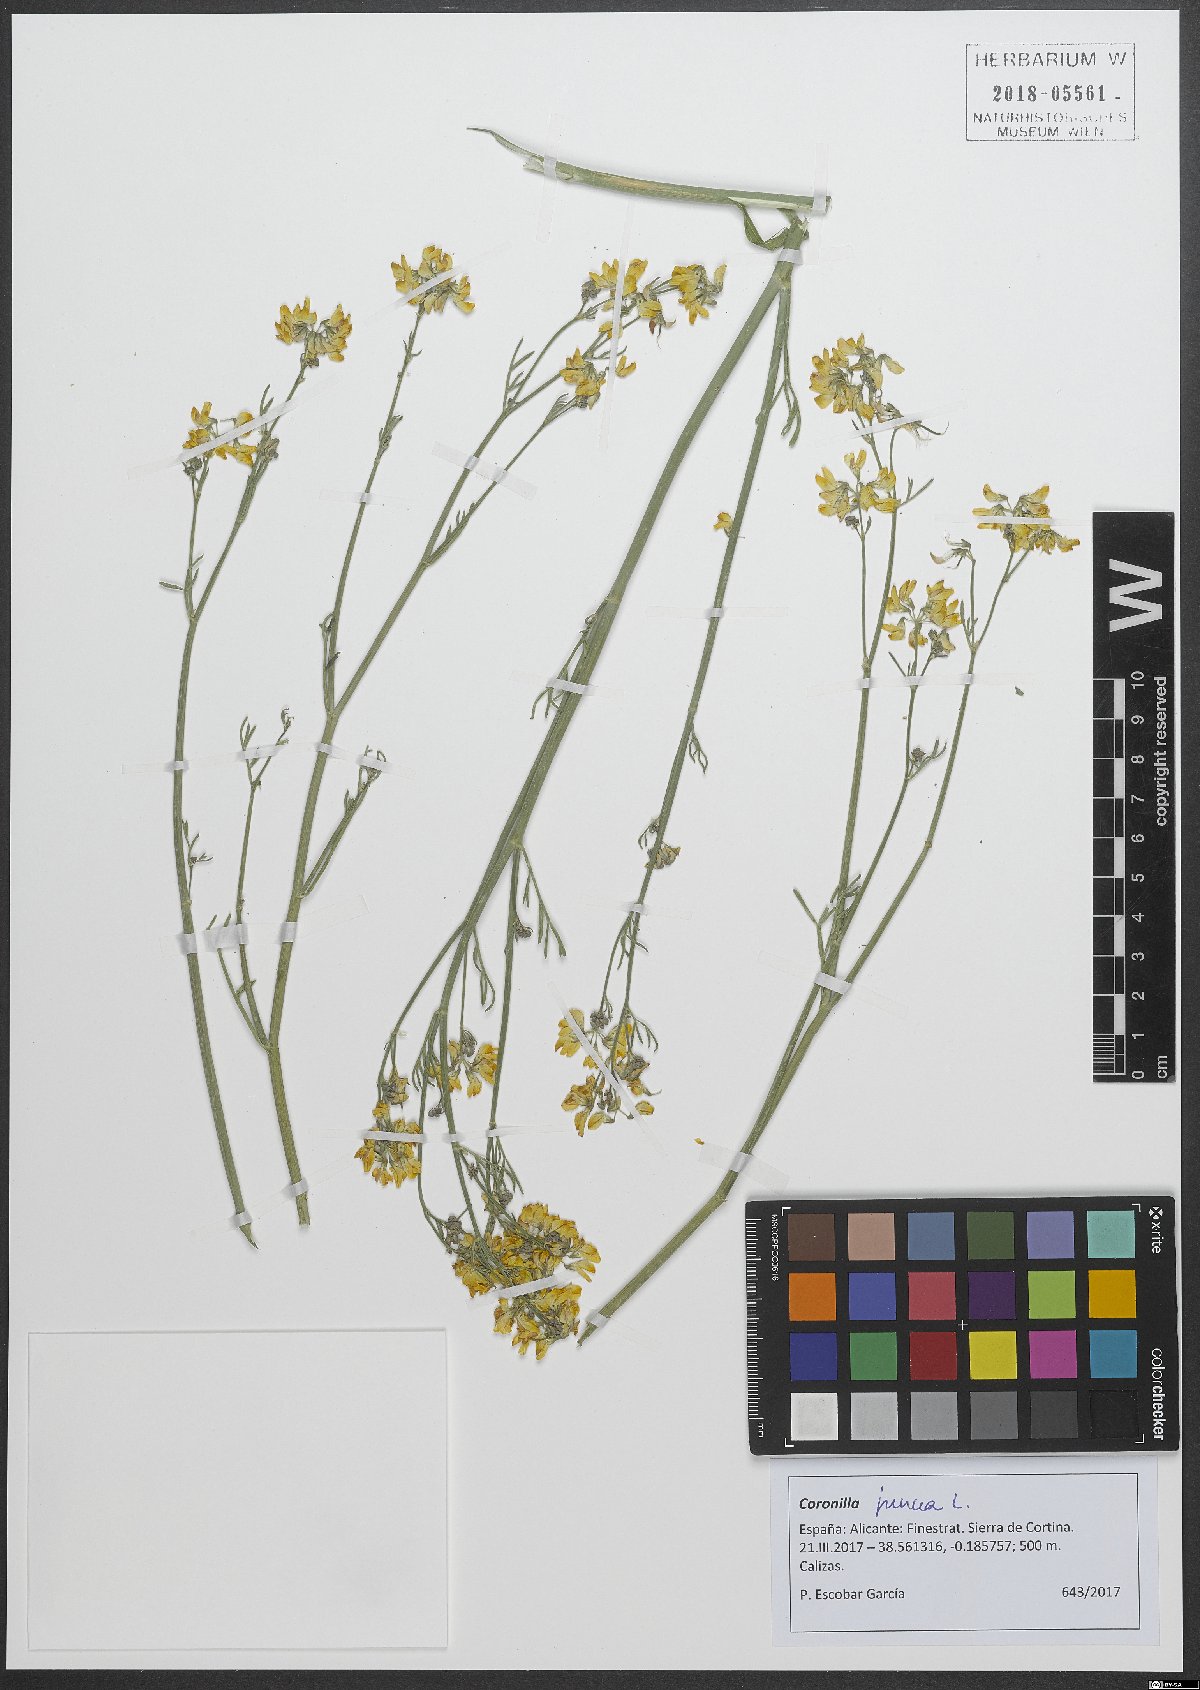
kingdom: Plantae
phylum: Tracheophyta
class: Magnoliopsida
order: Fabales
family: Fabaceae
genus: Coronilla
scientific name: Coronilla juncea
